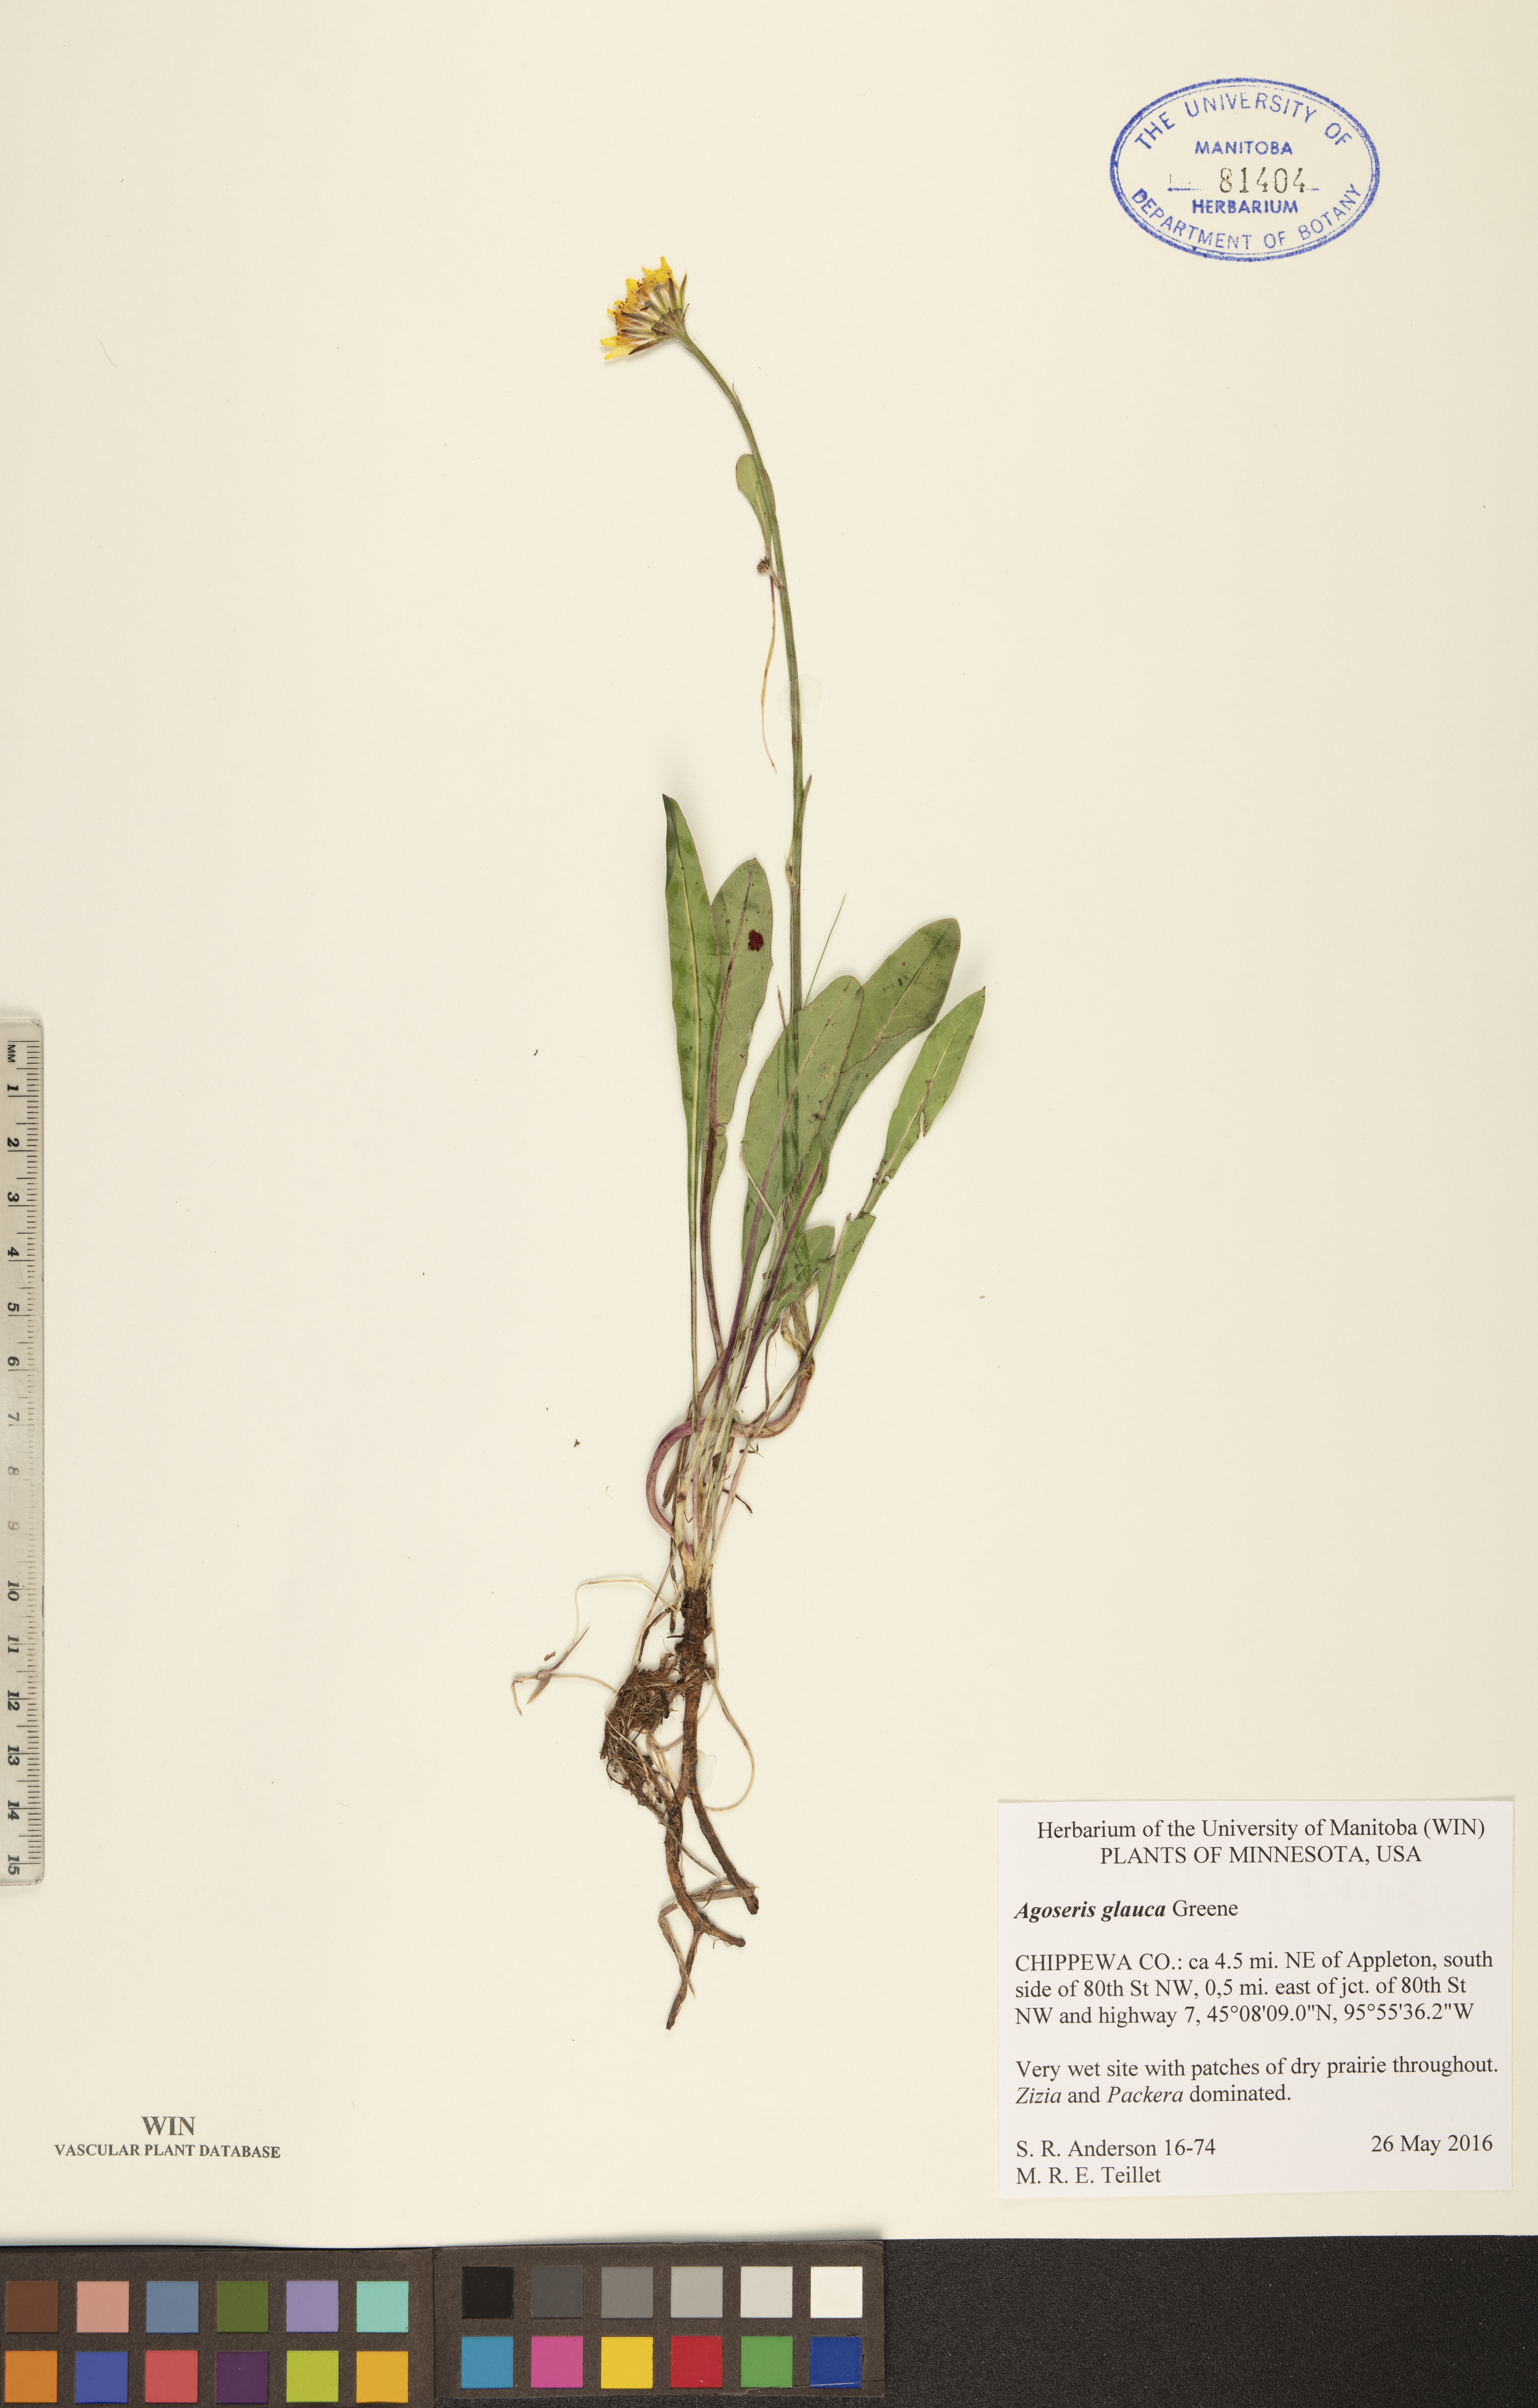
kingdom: Plantae
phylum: Tracheophyta
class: Magnoliopsida
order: Asterales
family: Asteraceae
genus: Agoseris
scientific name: Agoseris glauca
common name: Prairie agoseris
